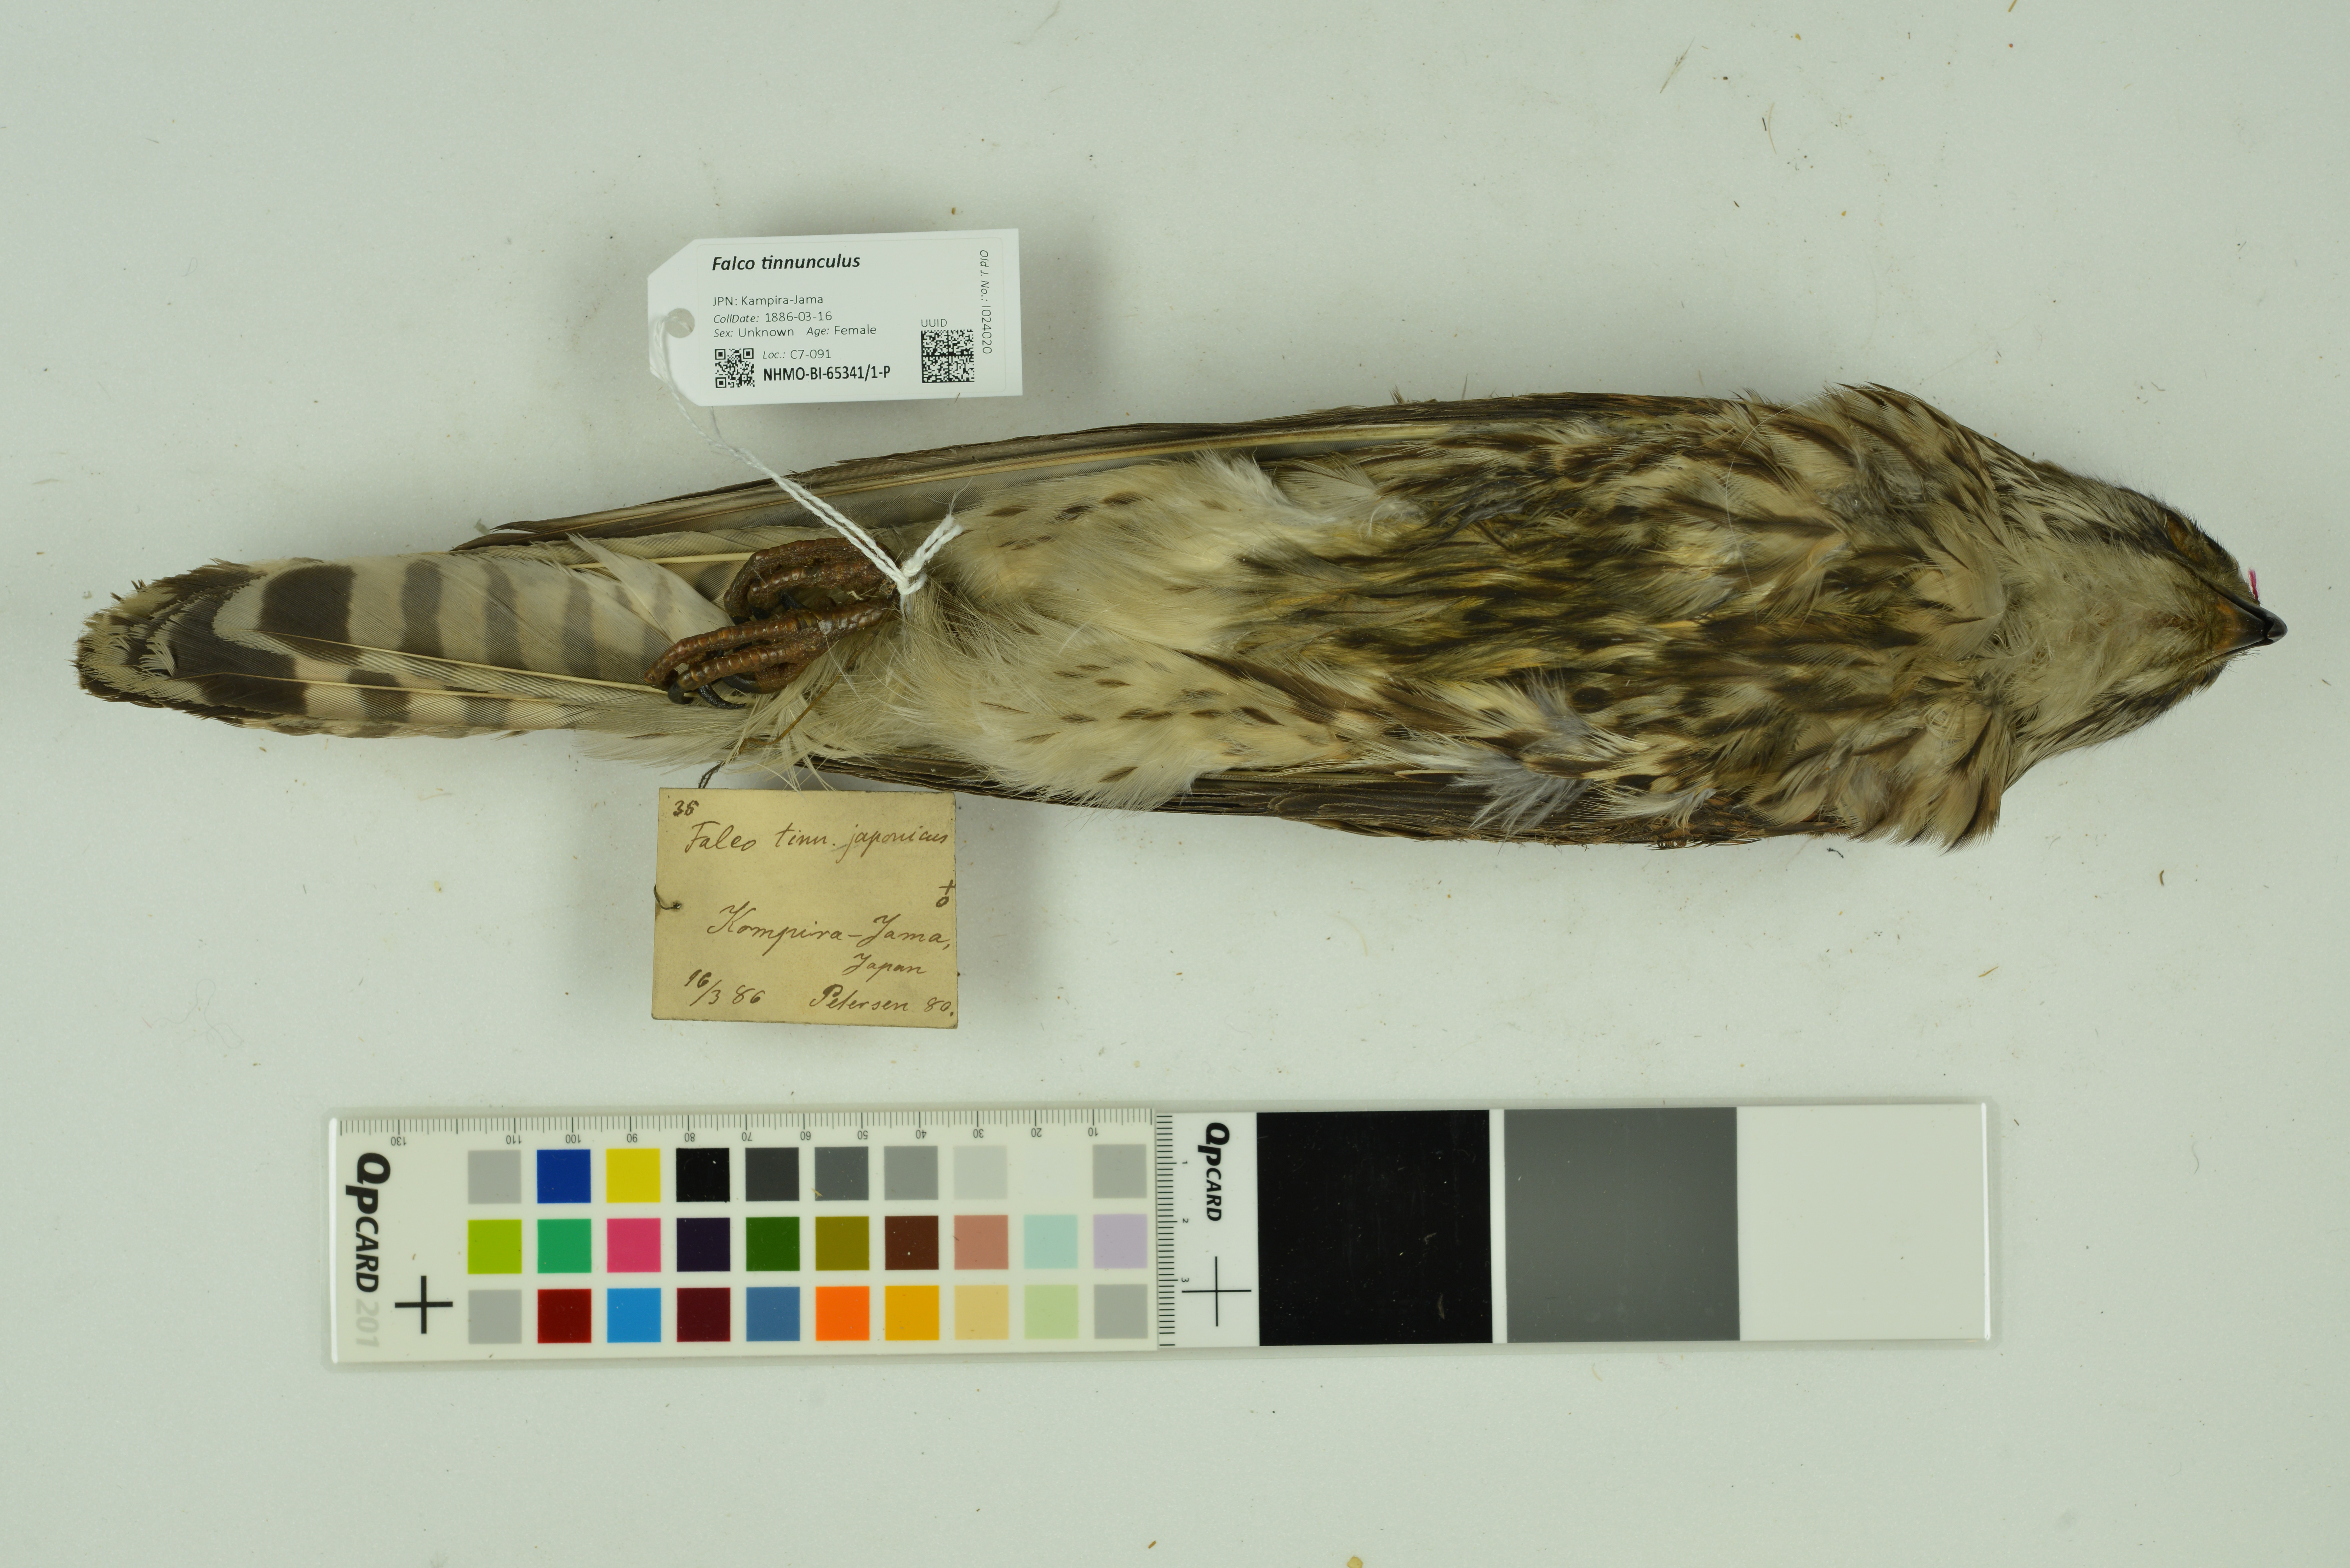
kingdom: Animalia
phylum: Chordata
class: Aves
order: Falconiformes
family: Falconidae
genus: Falco
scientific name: Falco tinnunculus
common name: Common kestrel
